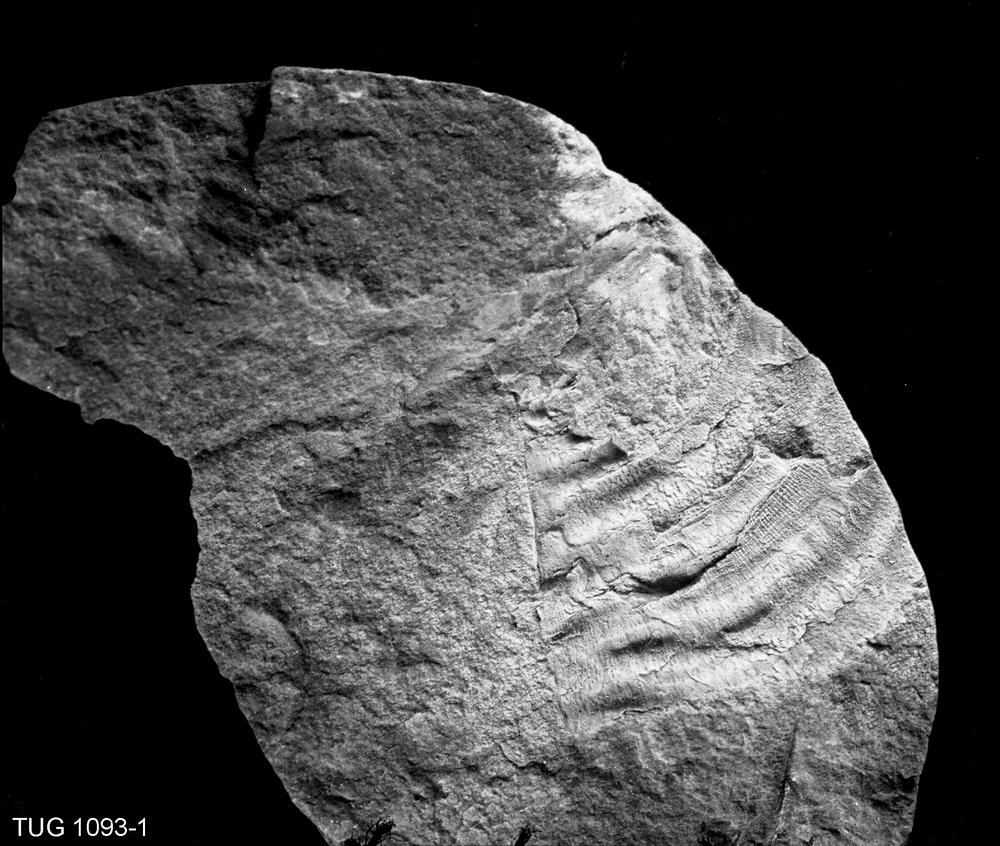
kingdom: Animalia
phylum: Brachiopoda
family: Leptaenidae
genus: Septomena
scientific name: Septomena
